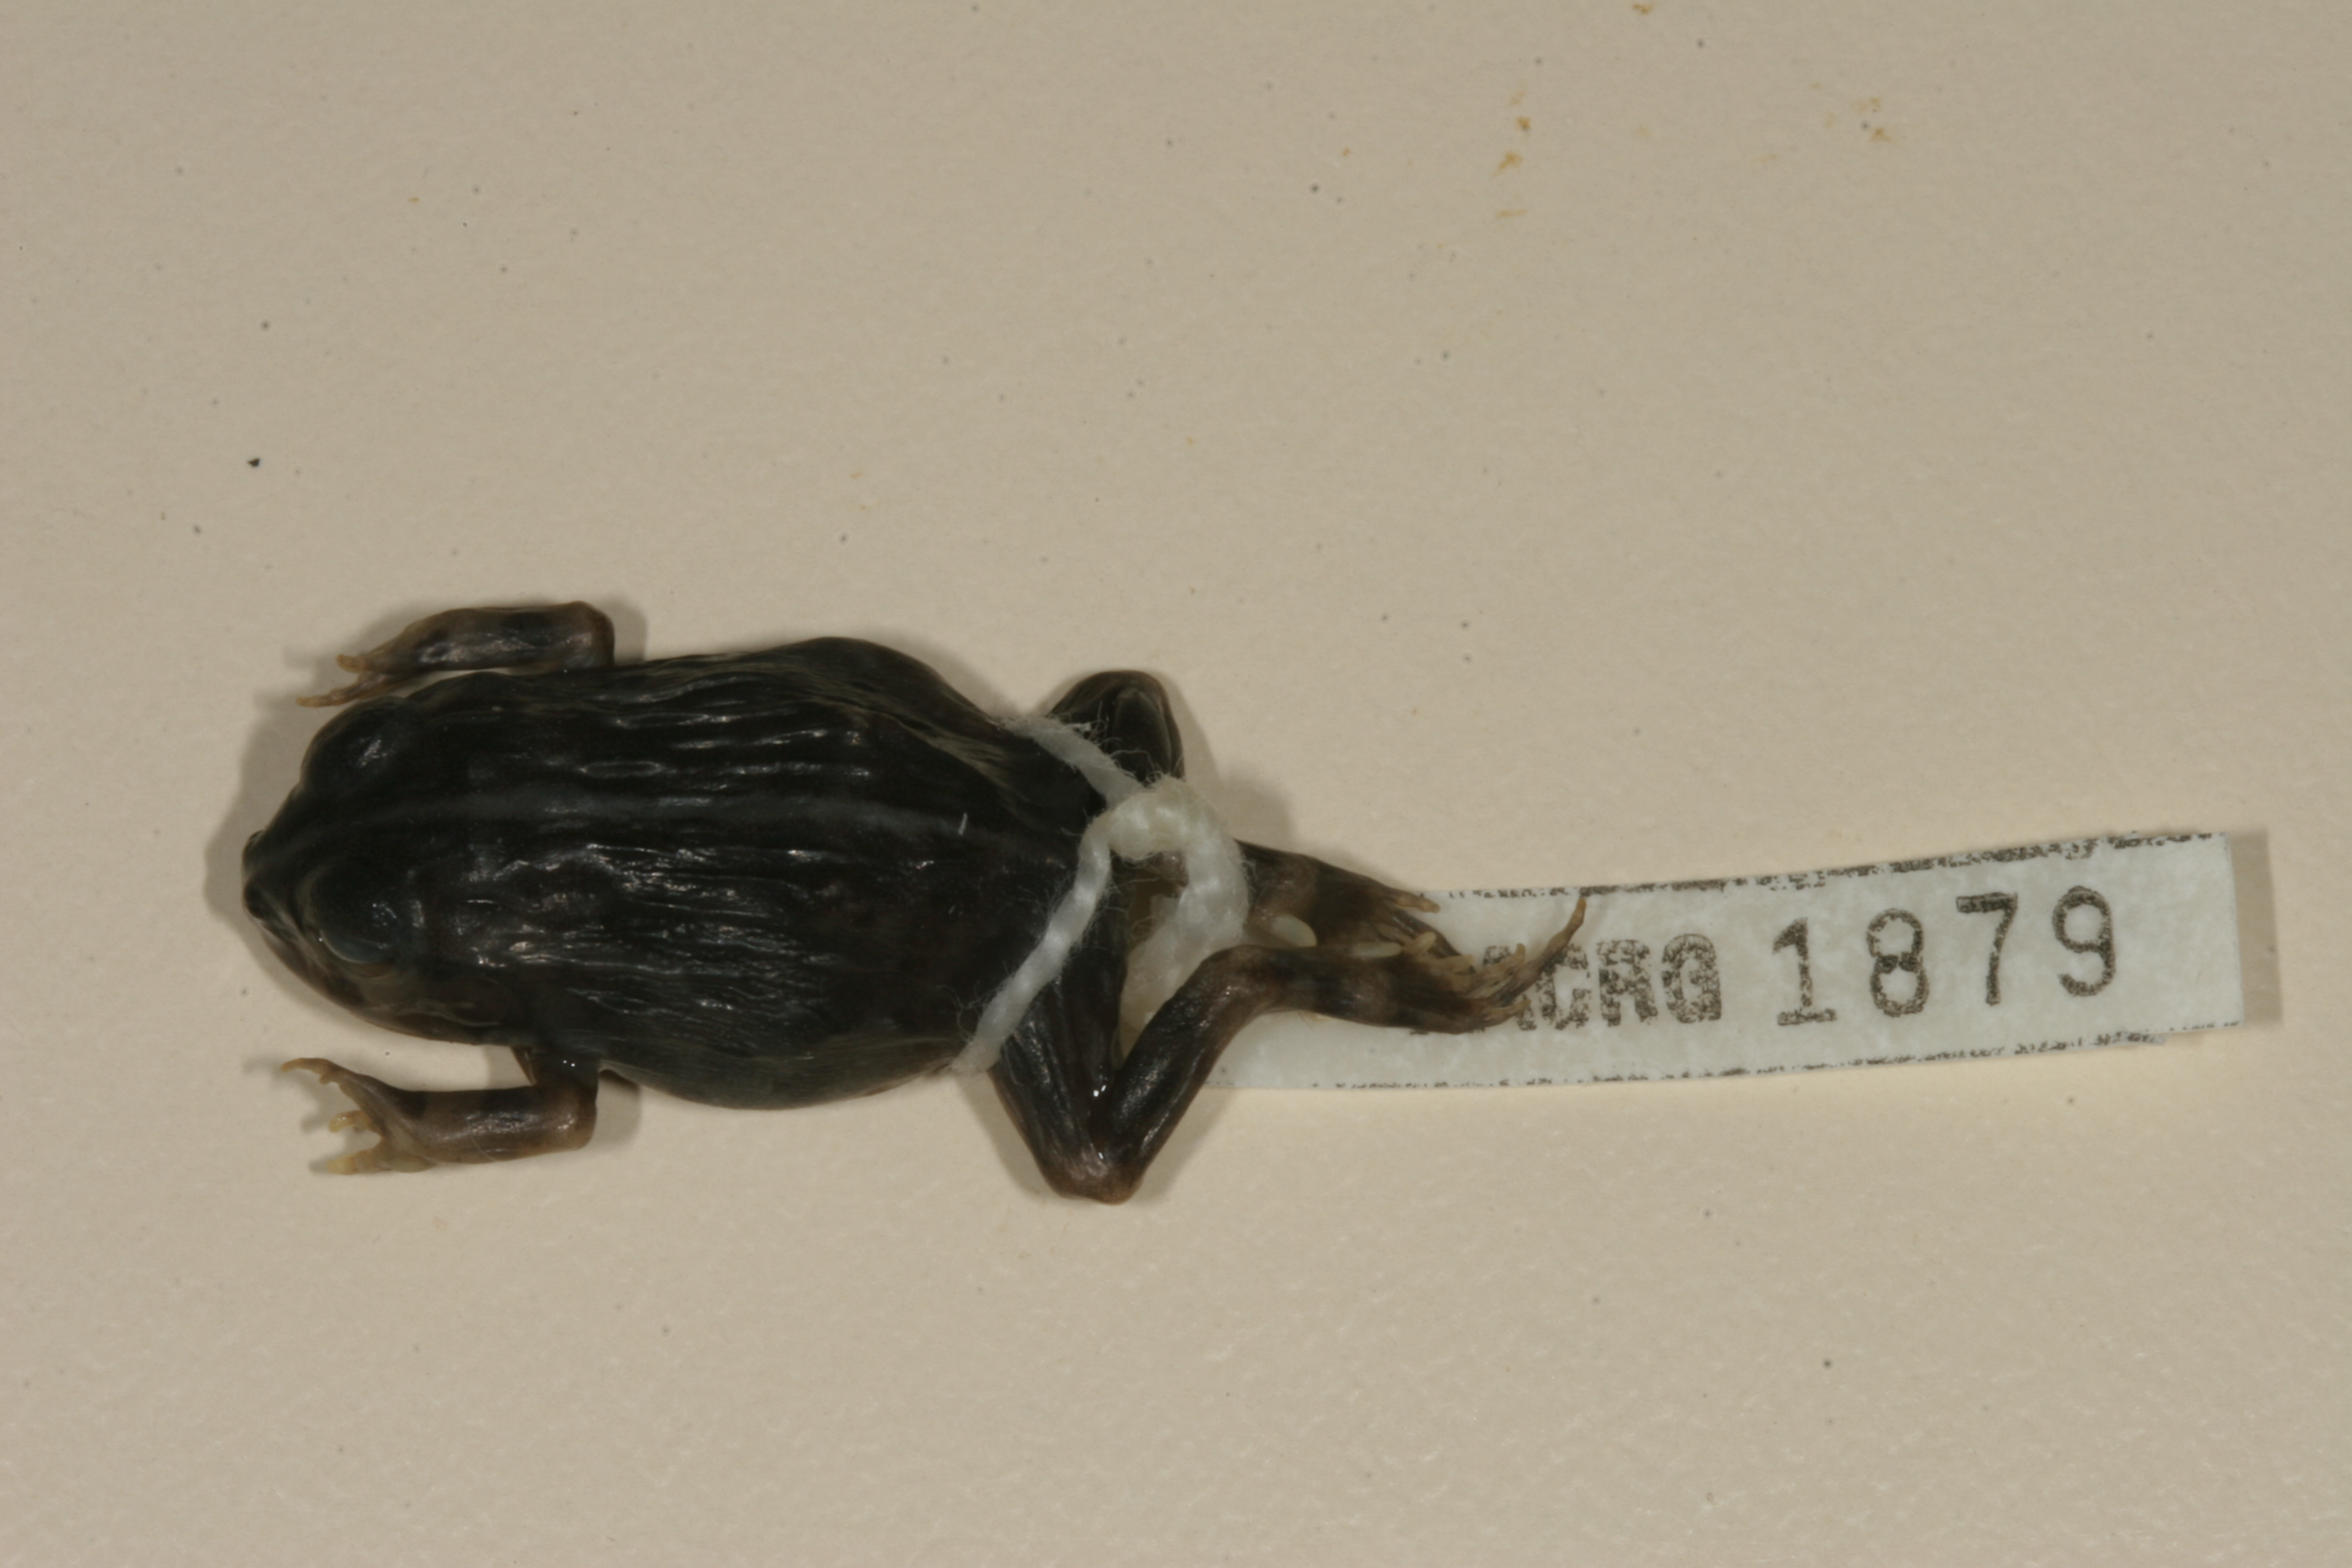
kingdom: Animalia
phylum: Chordata
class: Amphibia
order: Anura
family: Pyxicephalidae
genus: Pyxicephalus
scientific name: Pyxicephalus edulis
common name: Peter's bullfrog
